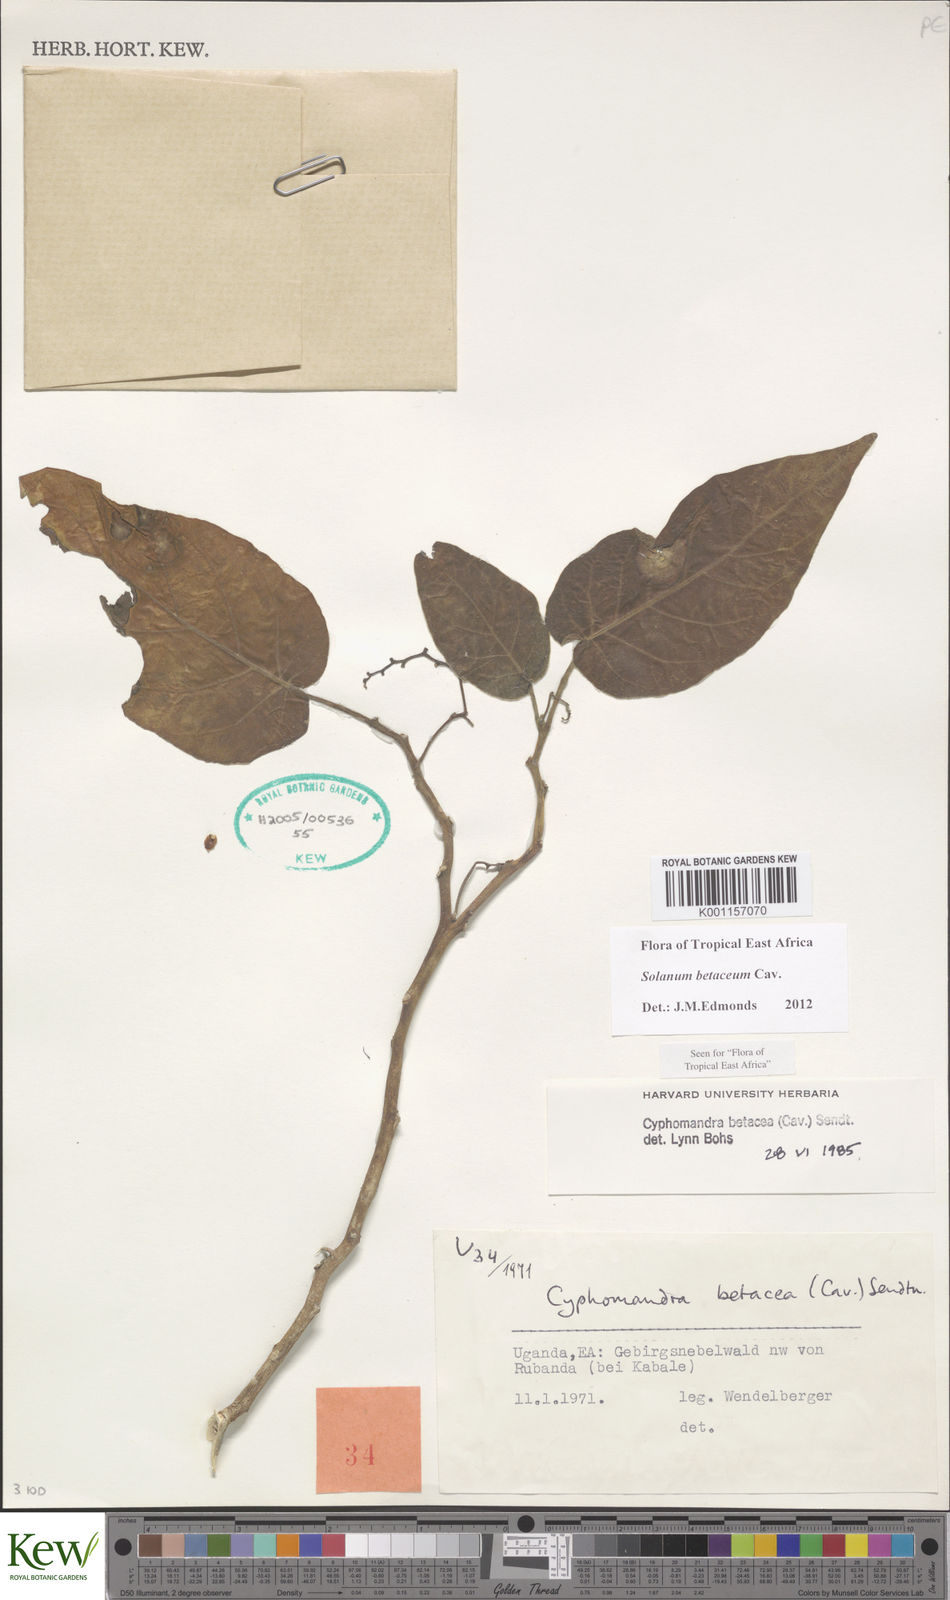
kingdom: Plantae
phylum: Tracheophyta
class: Magnoliopsida
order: Solanales
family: Solanaceae
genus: Solanum
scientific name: Solanum betaceum
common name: Tamarillo
